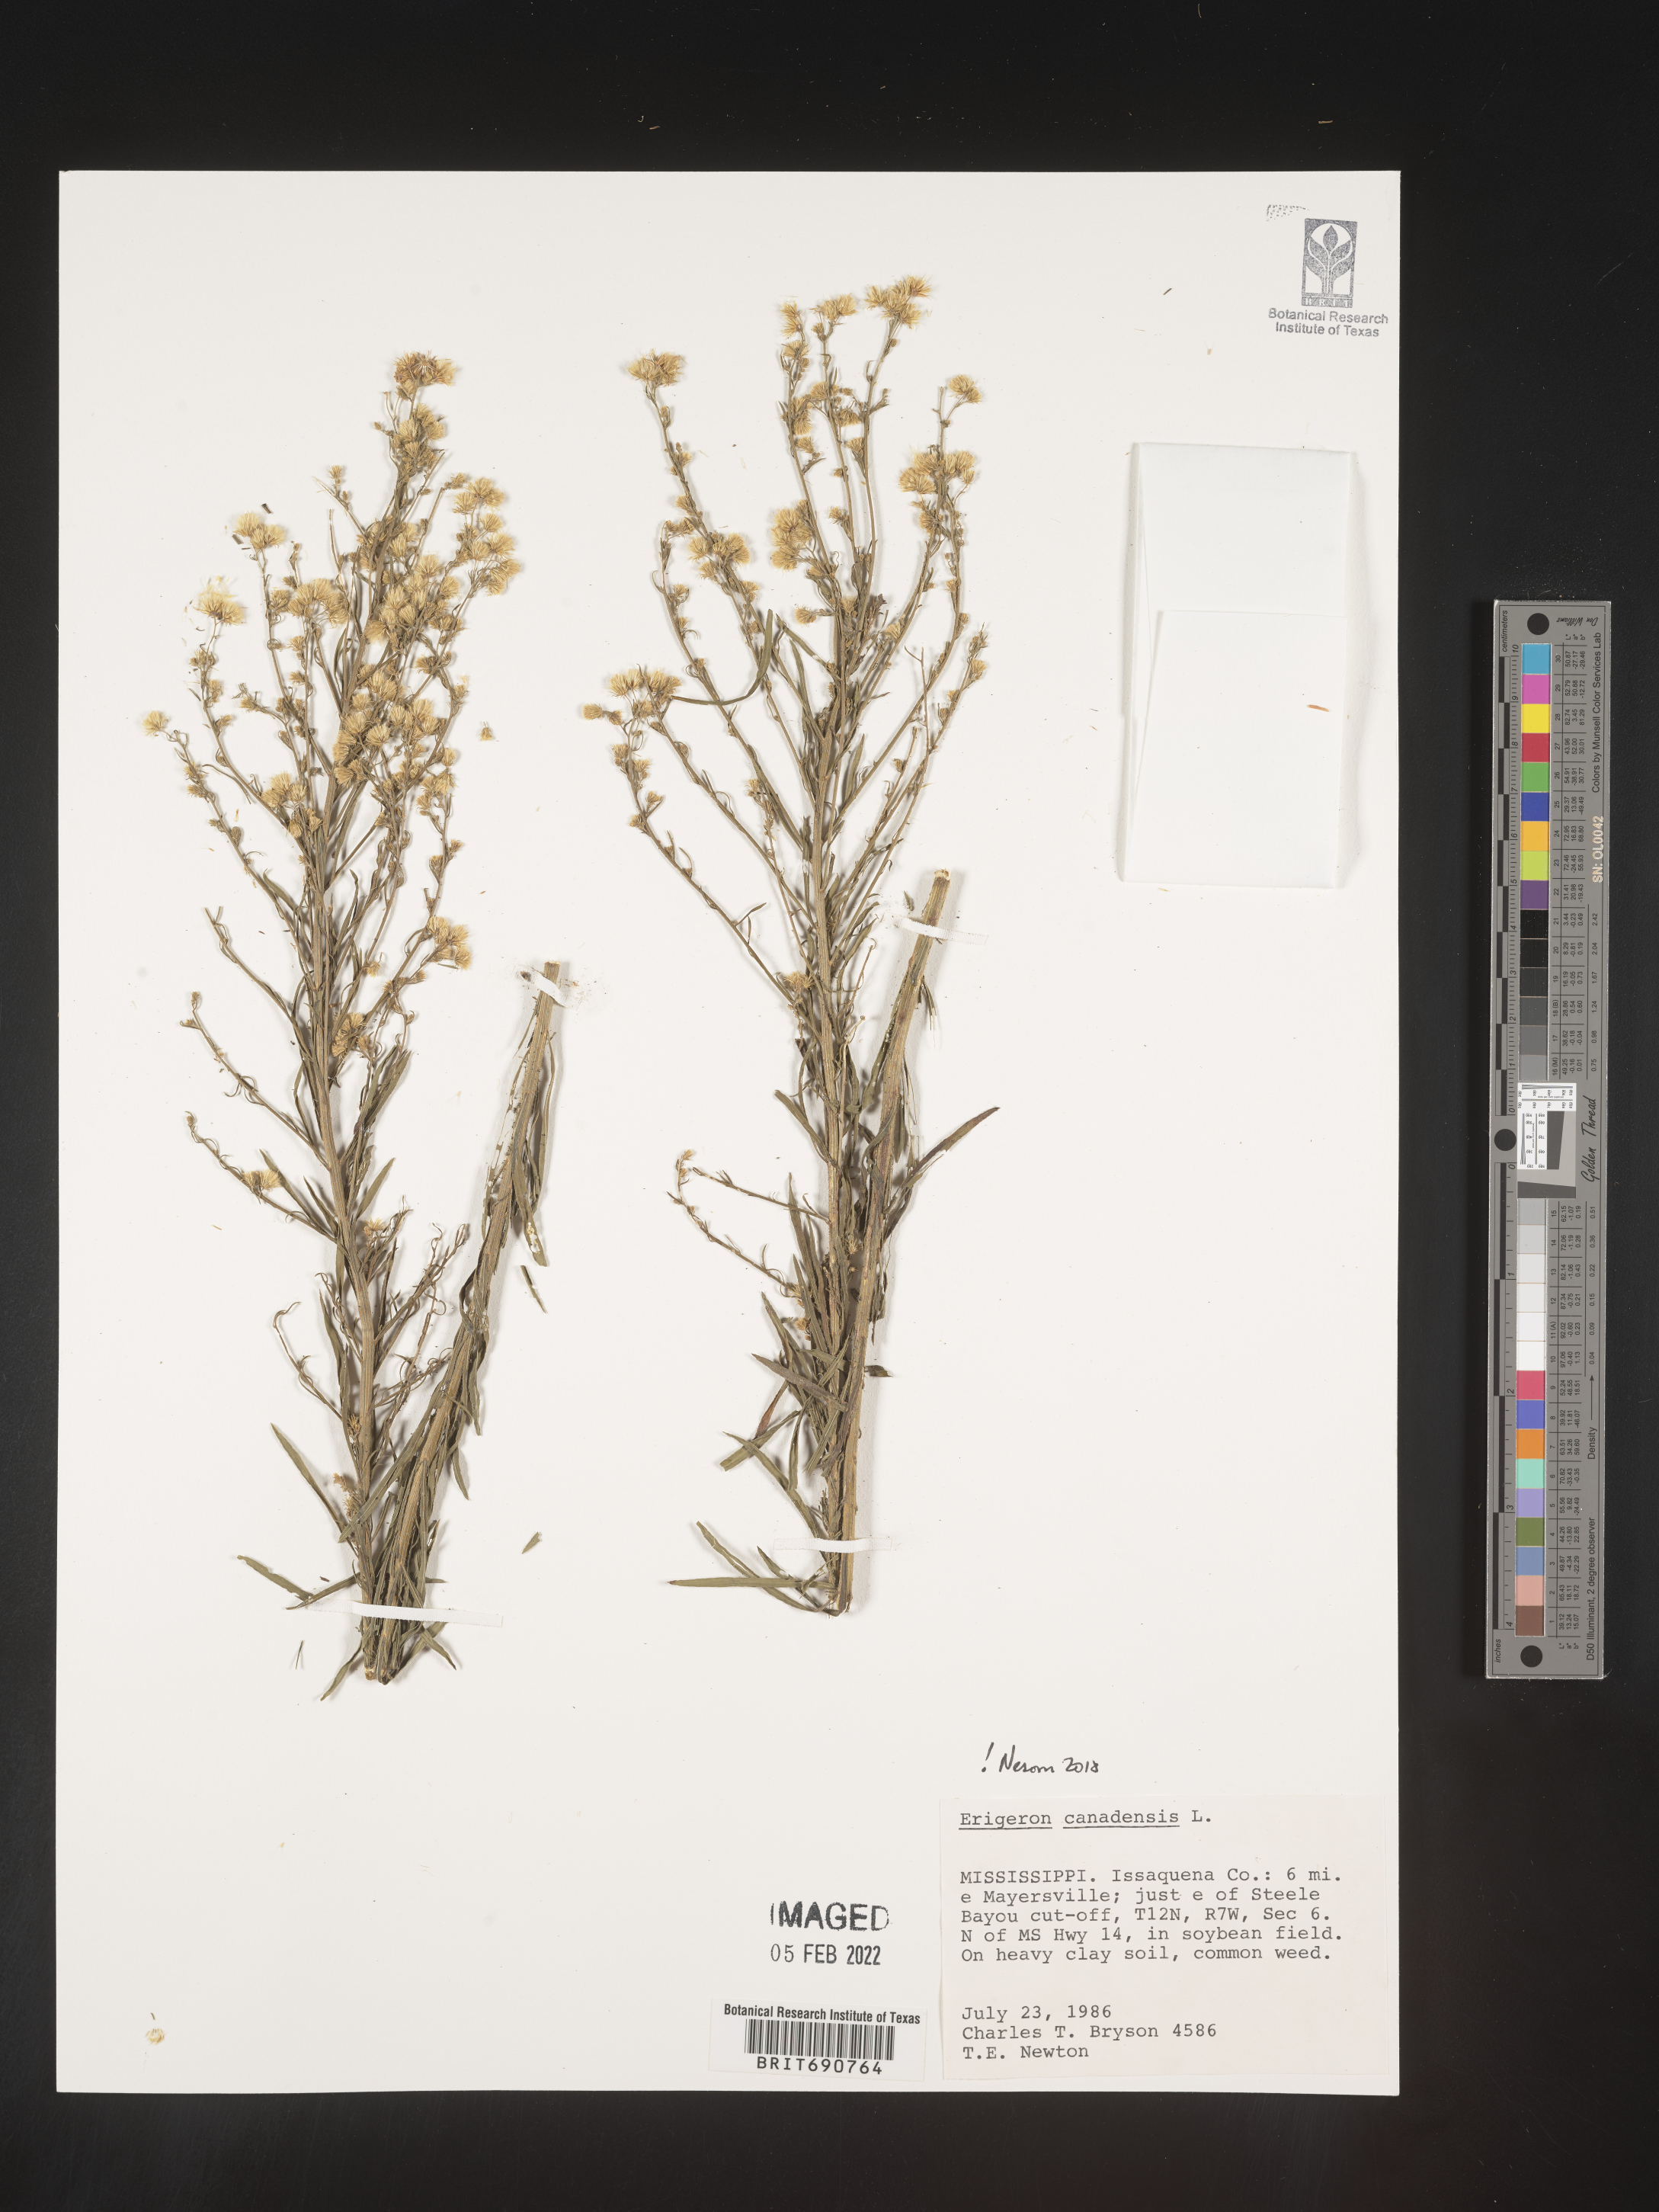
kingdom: Plantae
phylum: Tracheophyta
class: Magnoliopsida
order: Asterales
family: Asteraceae
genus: Erigeron
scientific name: Erigeron canadensis
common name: Canadian fleabane
